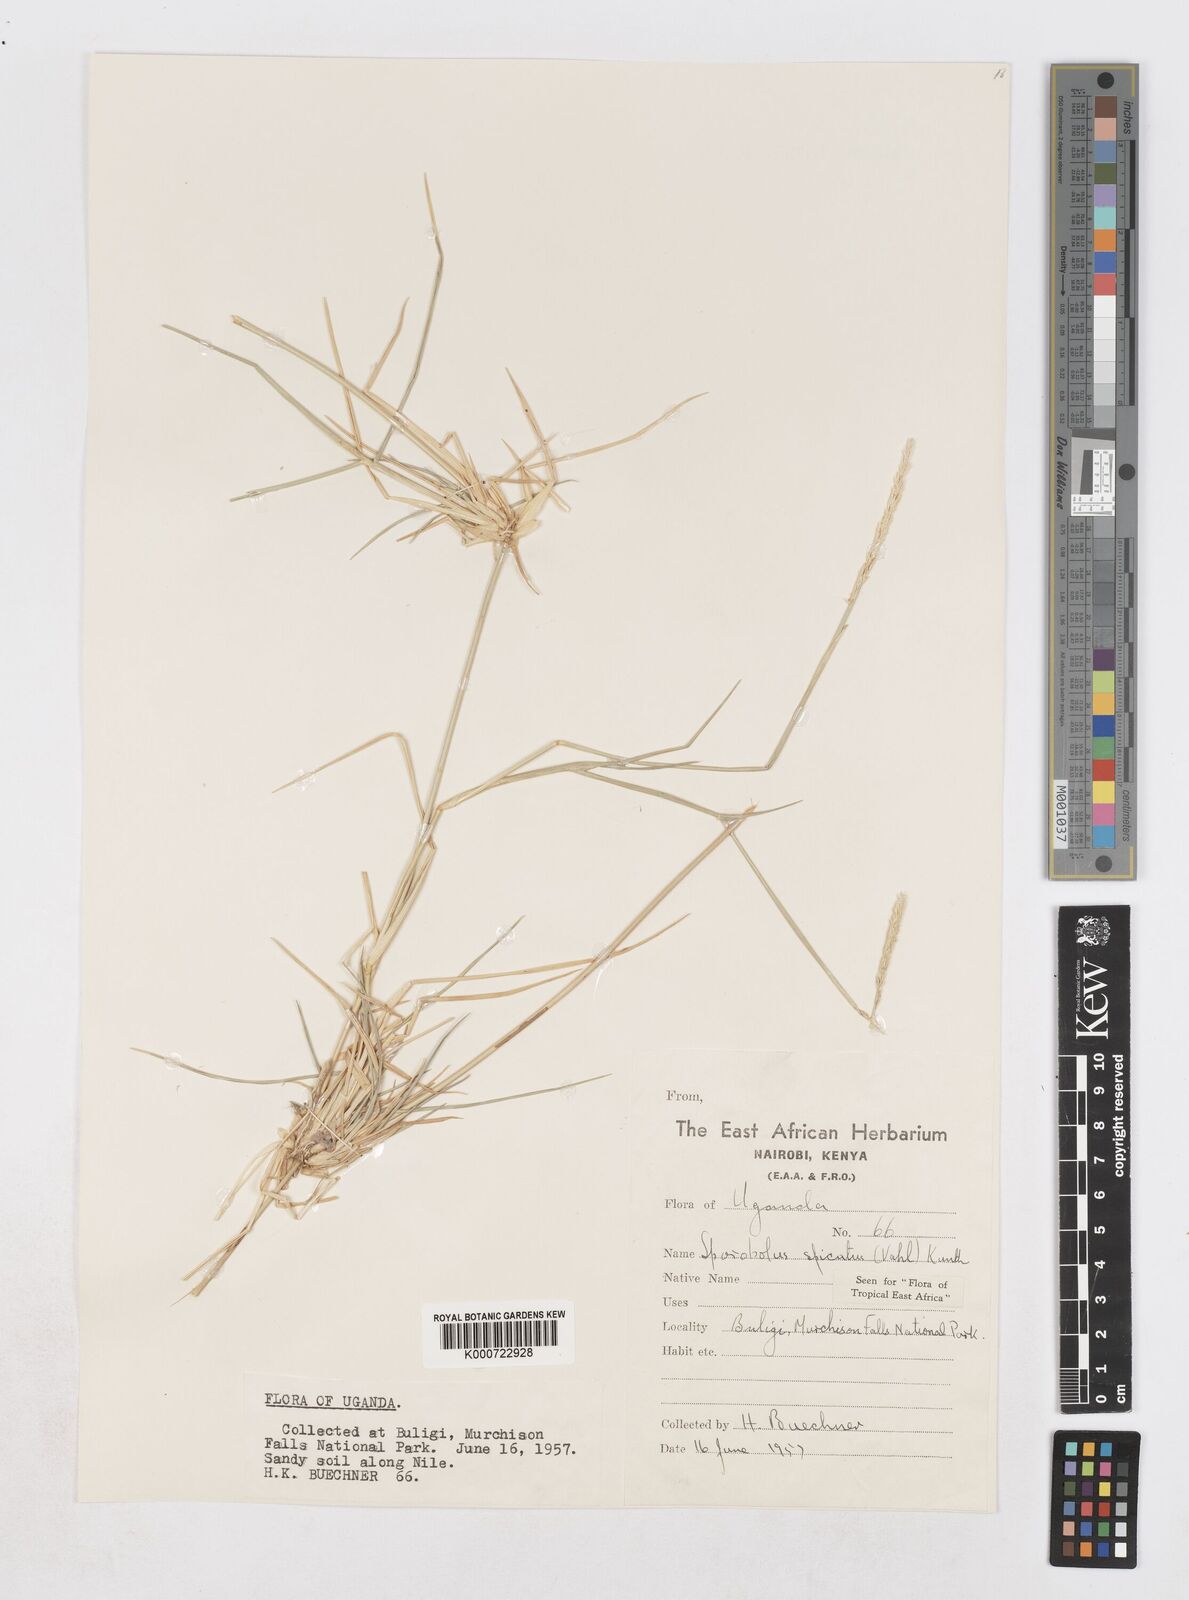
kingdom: Plantae
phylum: Tracheophyta
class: Liliopsida
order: Poales
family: Poaceae
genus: Sporobolus
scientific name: Sporobolus spicatus
